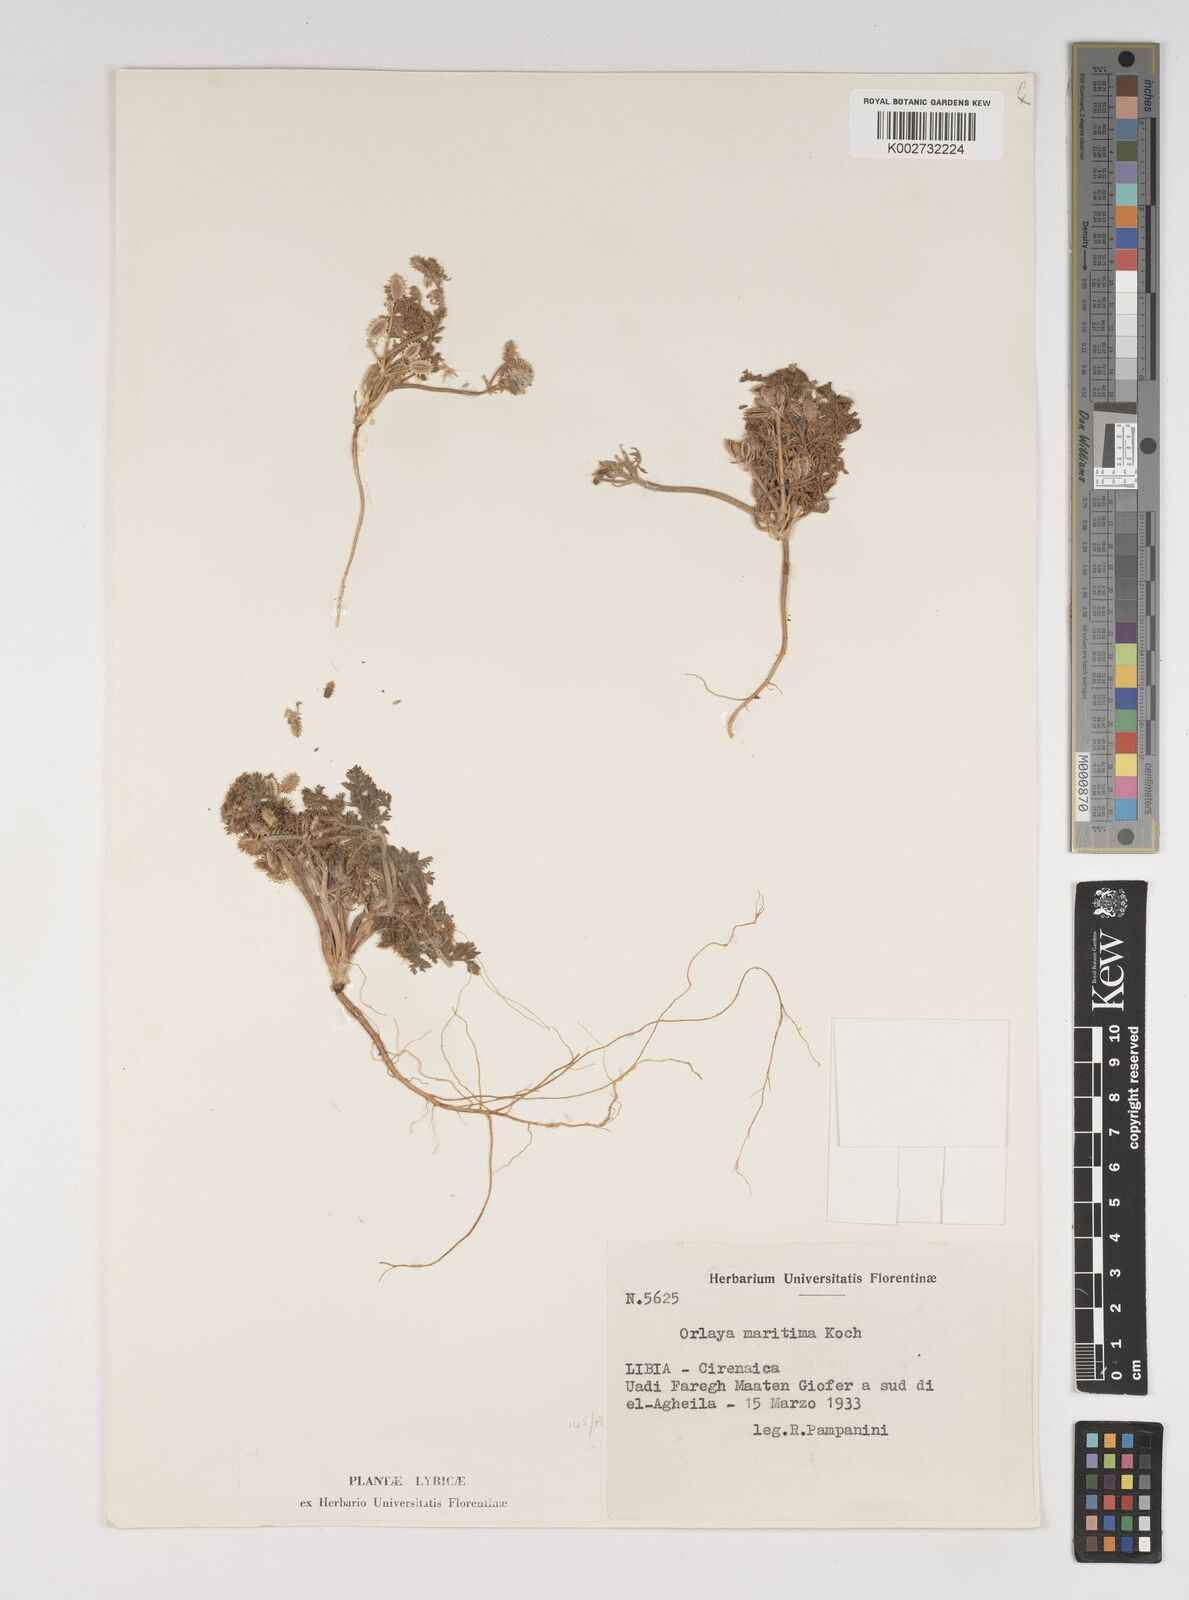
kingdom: Plantae
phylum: Tracheophyta
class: Magnoliopsida
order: Apiales
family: Apiaceae
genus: Daucus
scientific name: Daucus pumilus
